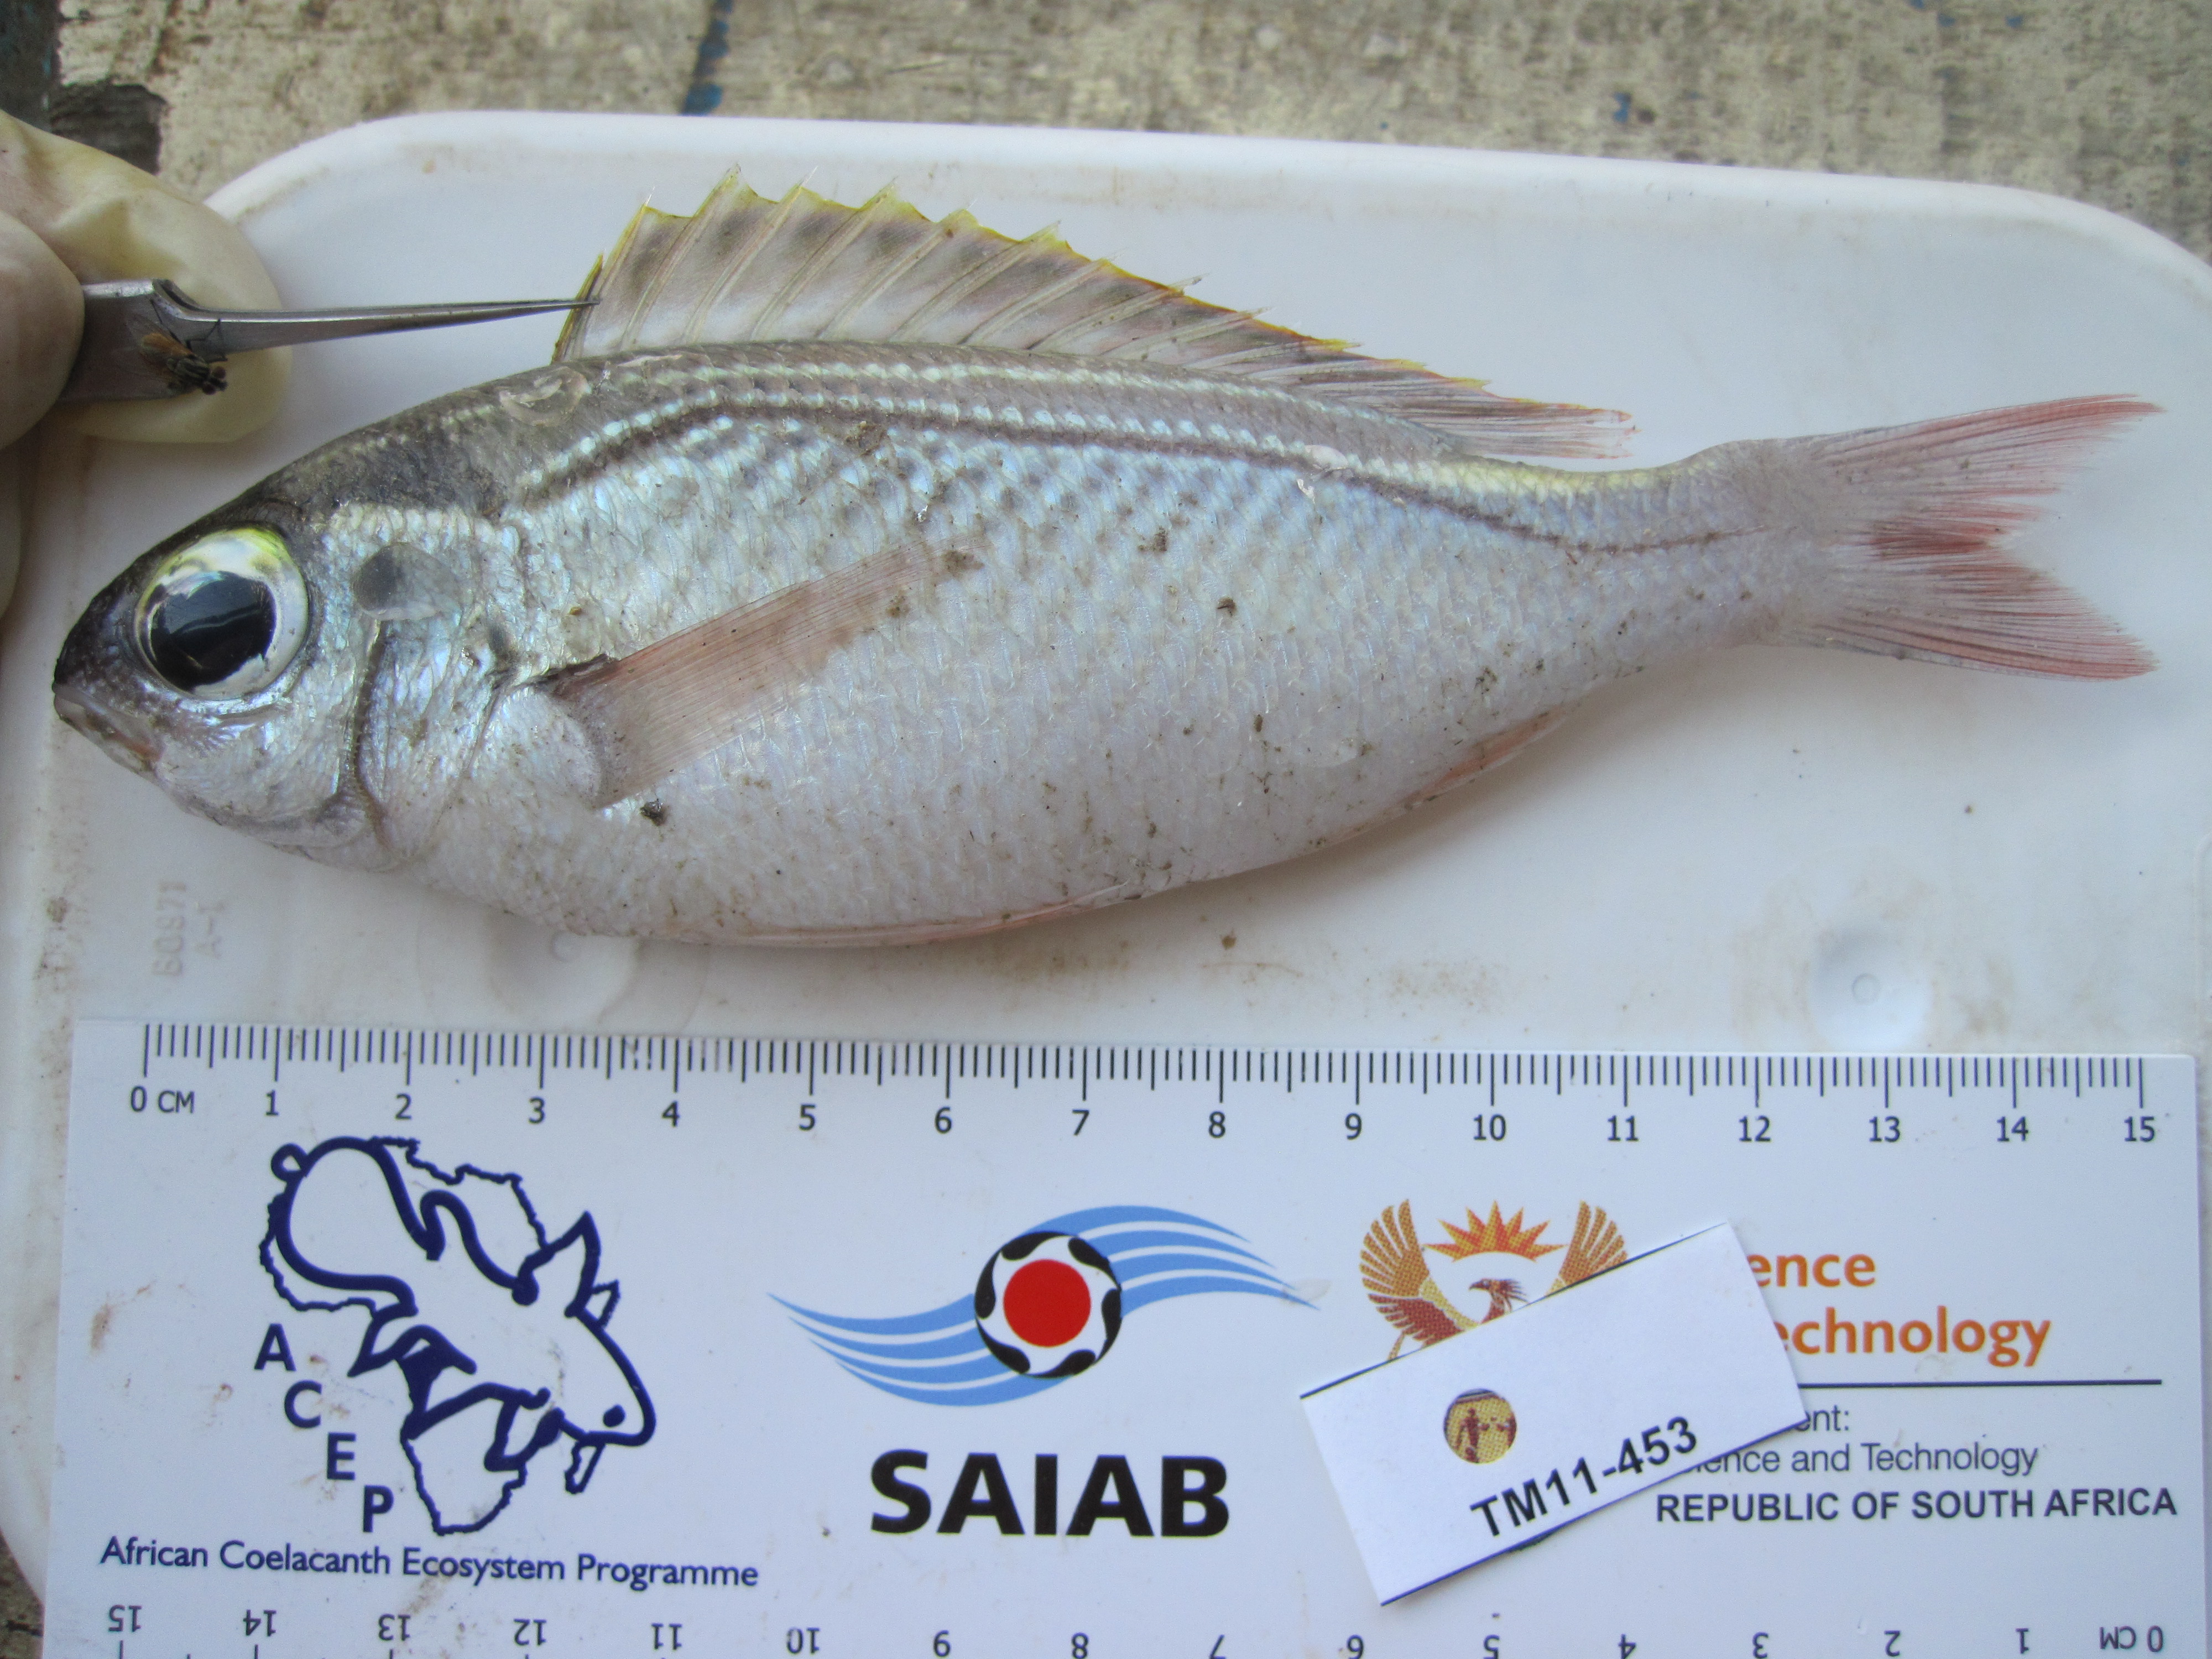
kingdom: Animalia
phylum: Chordata
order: Perciformes
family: Nemipteridae
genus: Scolopsis
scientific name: Scolopsis ghanam
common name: Arabian monocle bream
